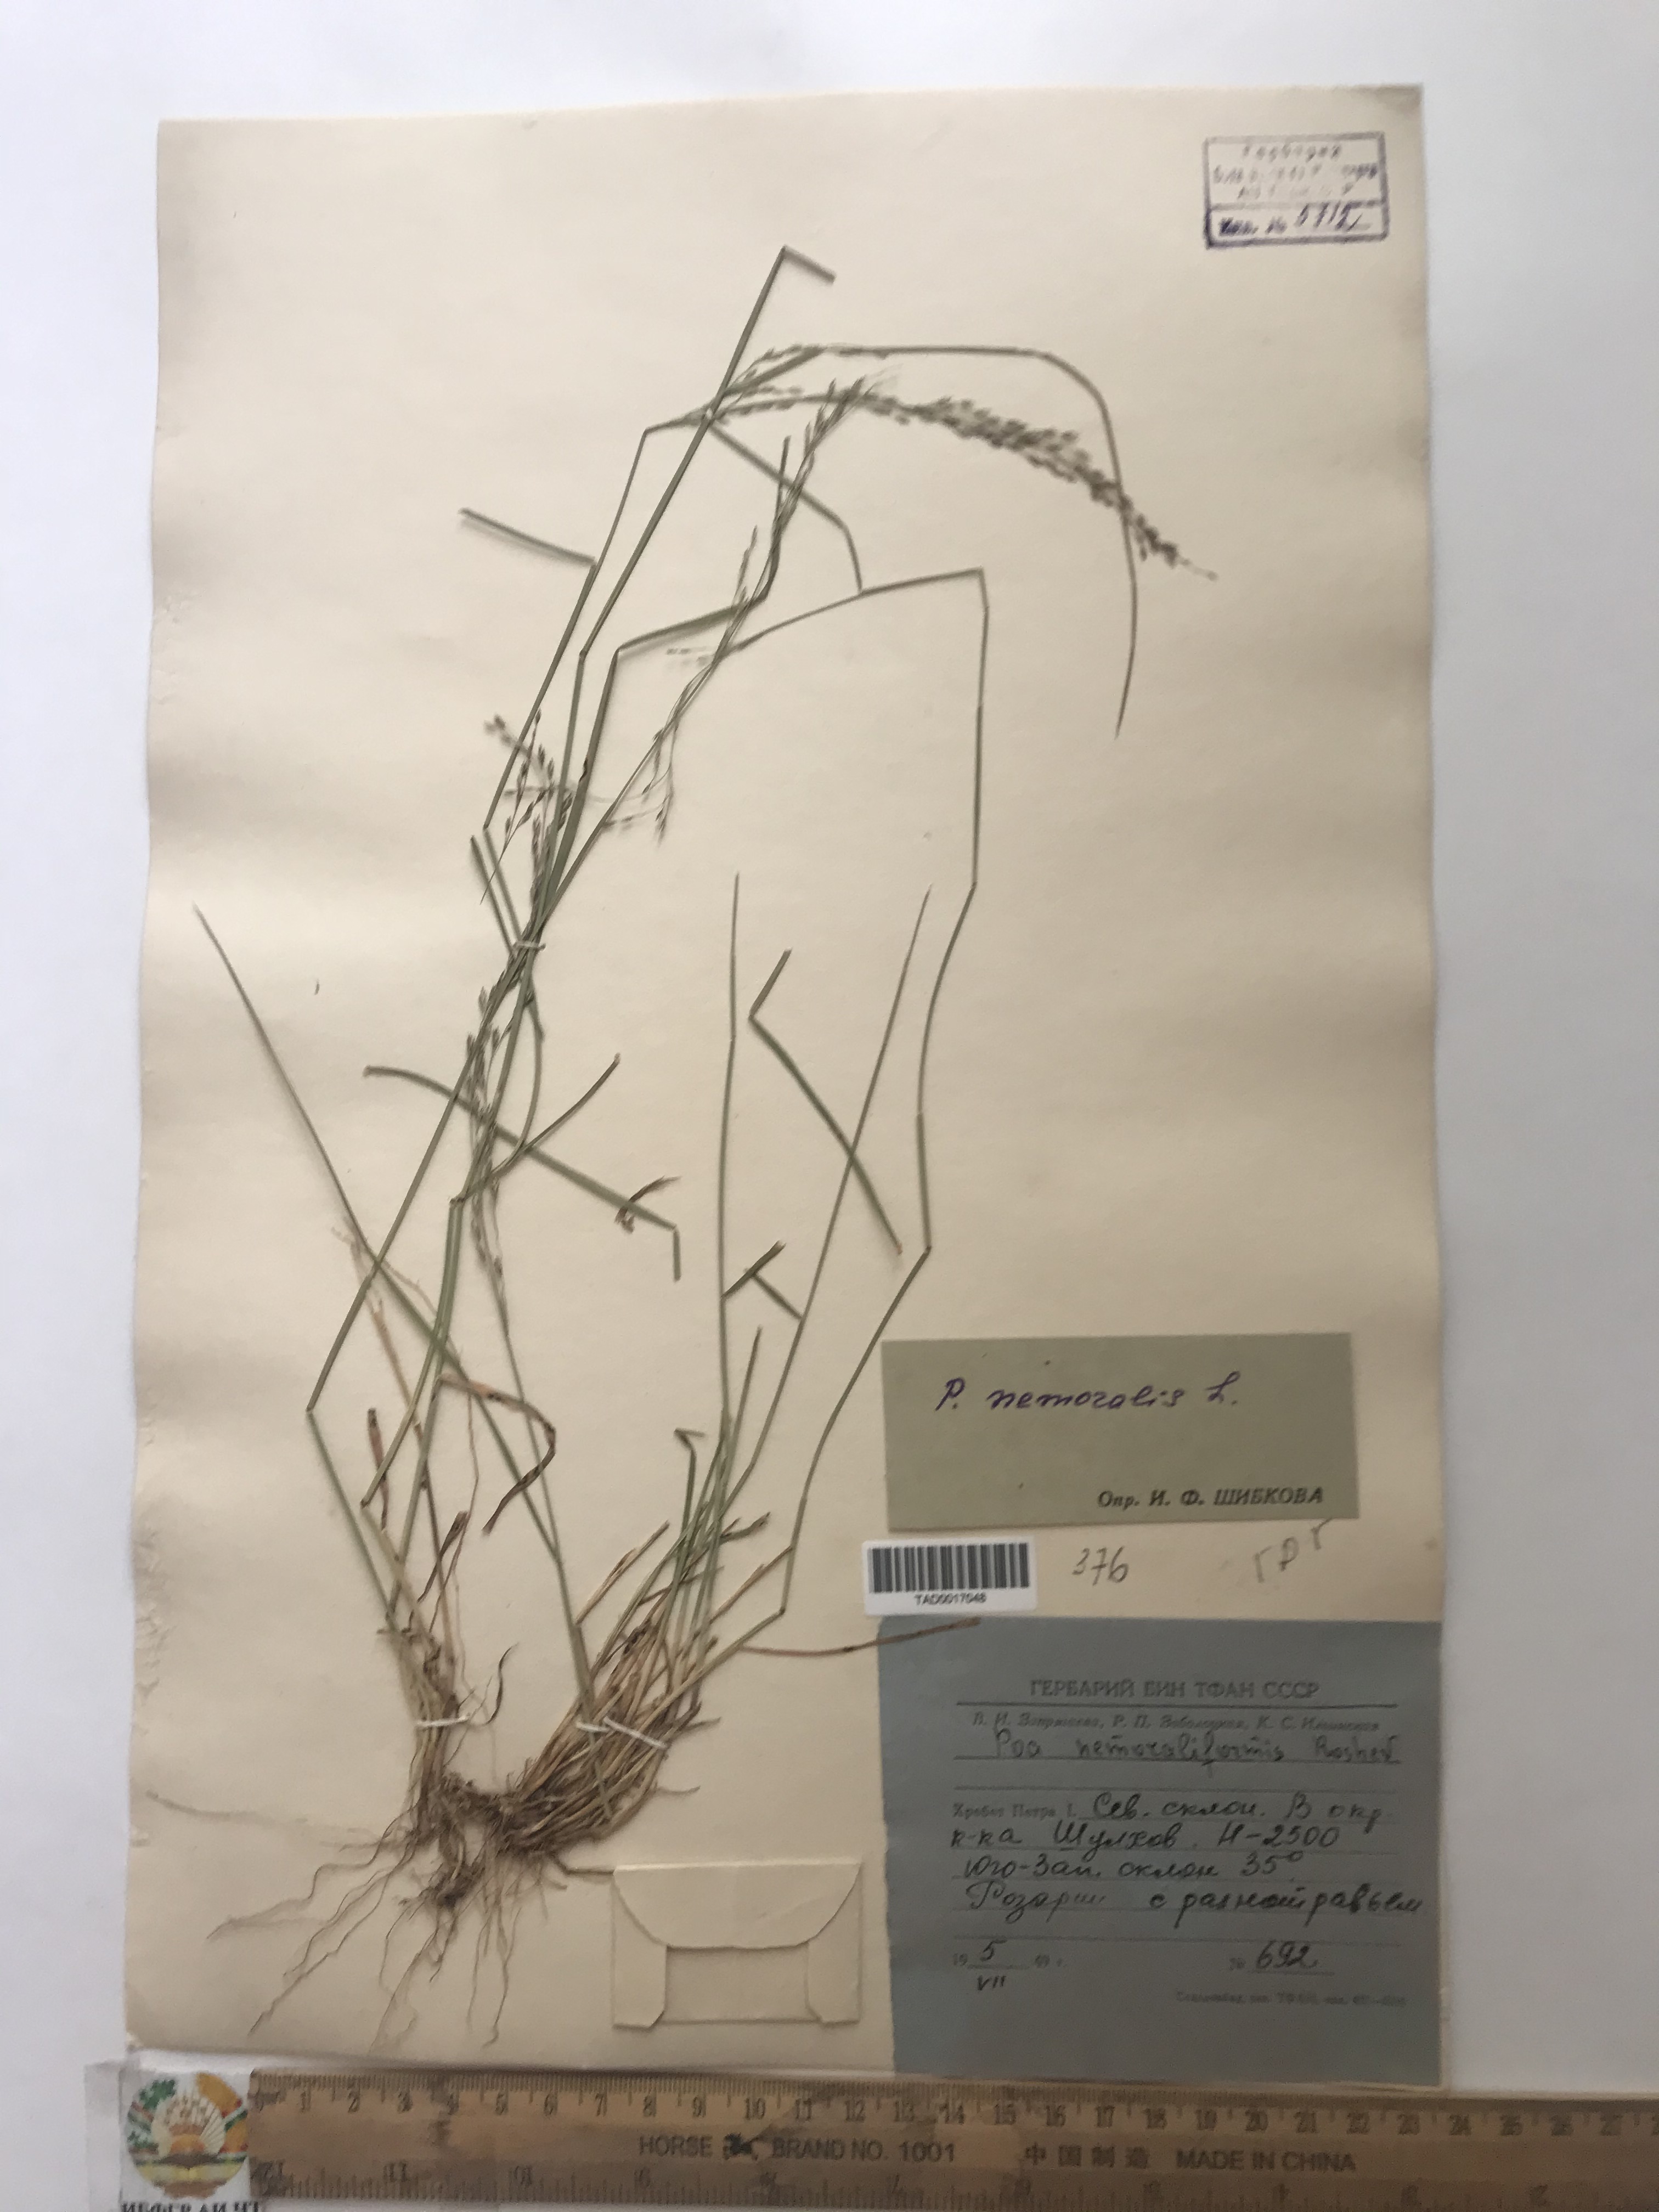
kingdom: Plantae
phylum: Tracheophyta
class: Liliopsida
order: Poales
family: Poaceae
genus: Poa
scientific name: Poa nemoraliformis
